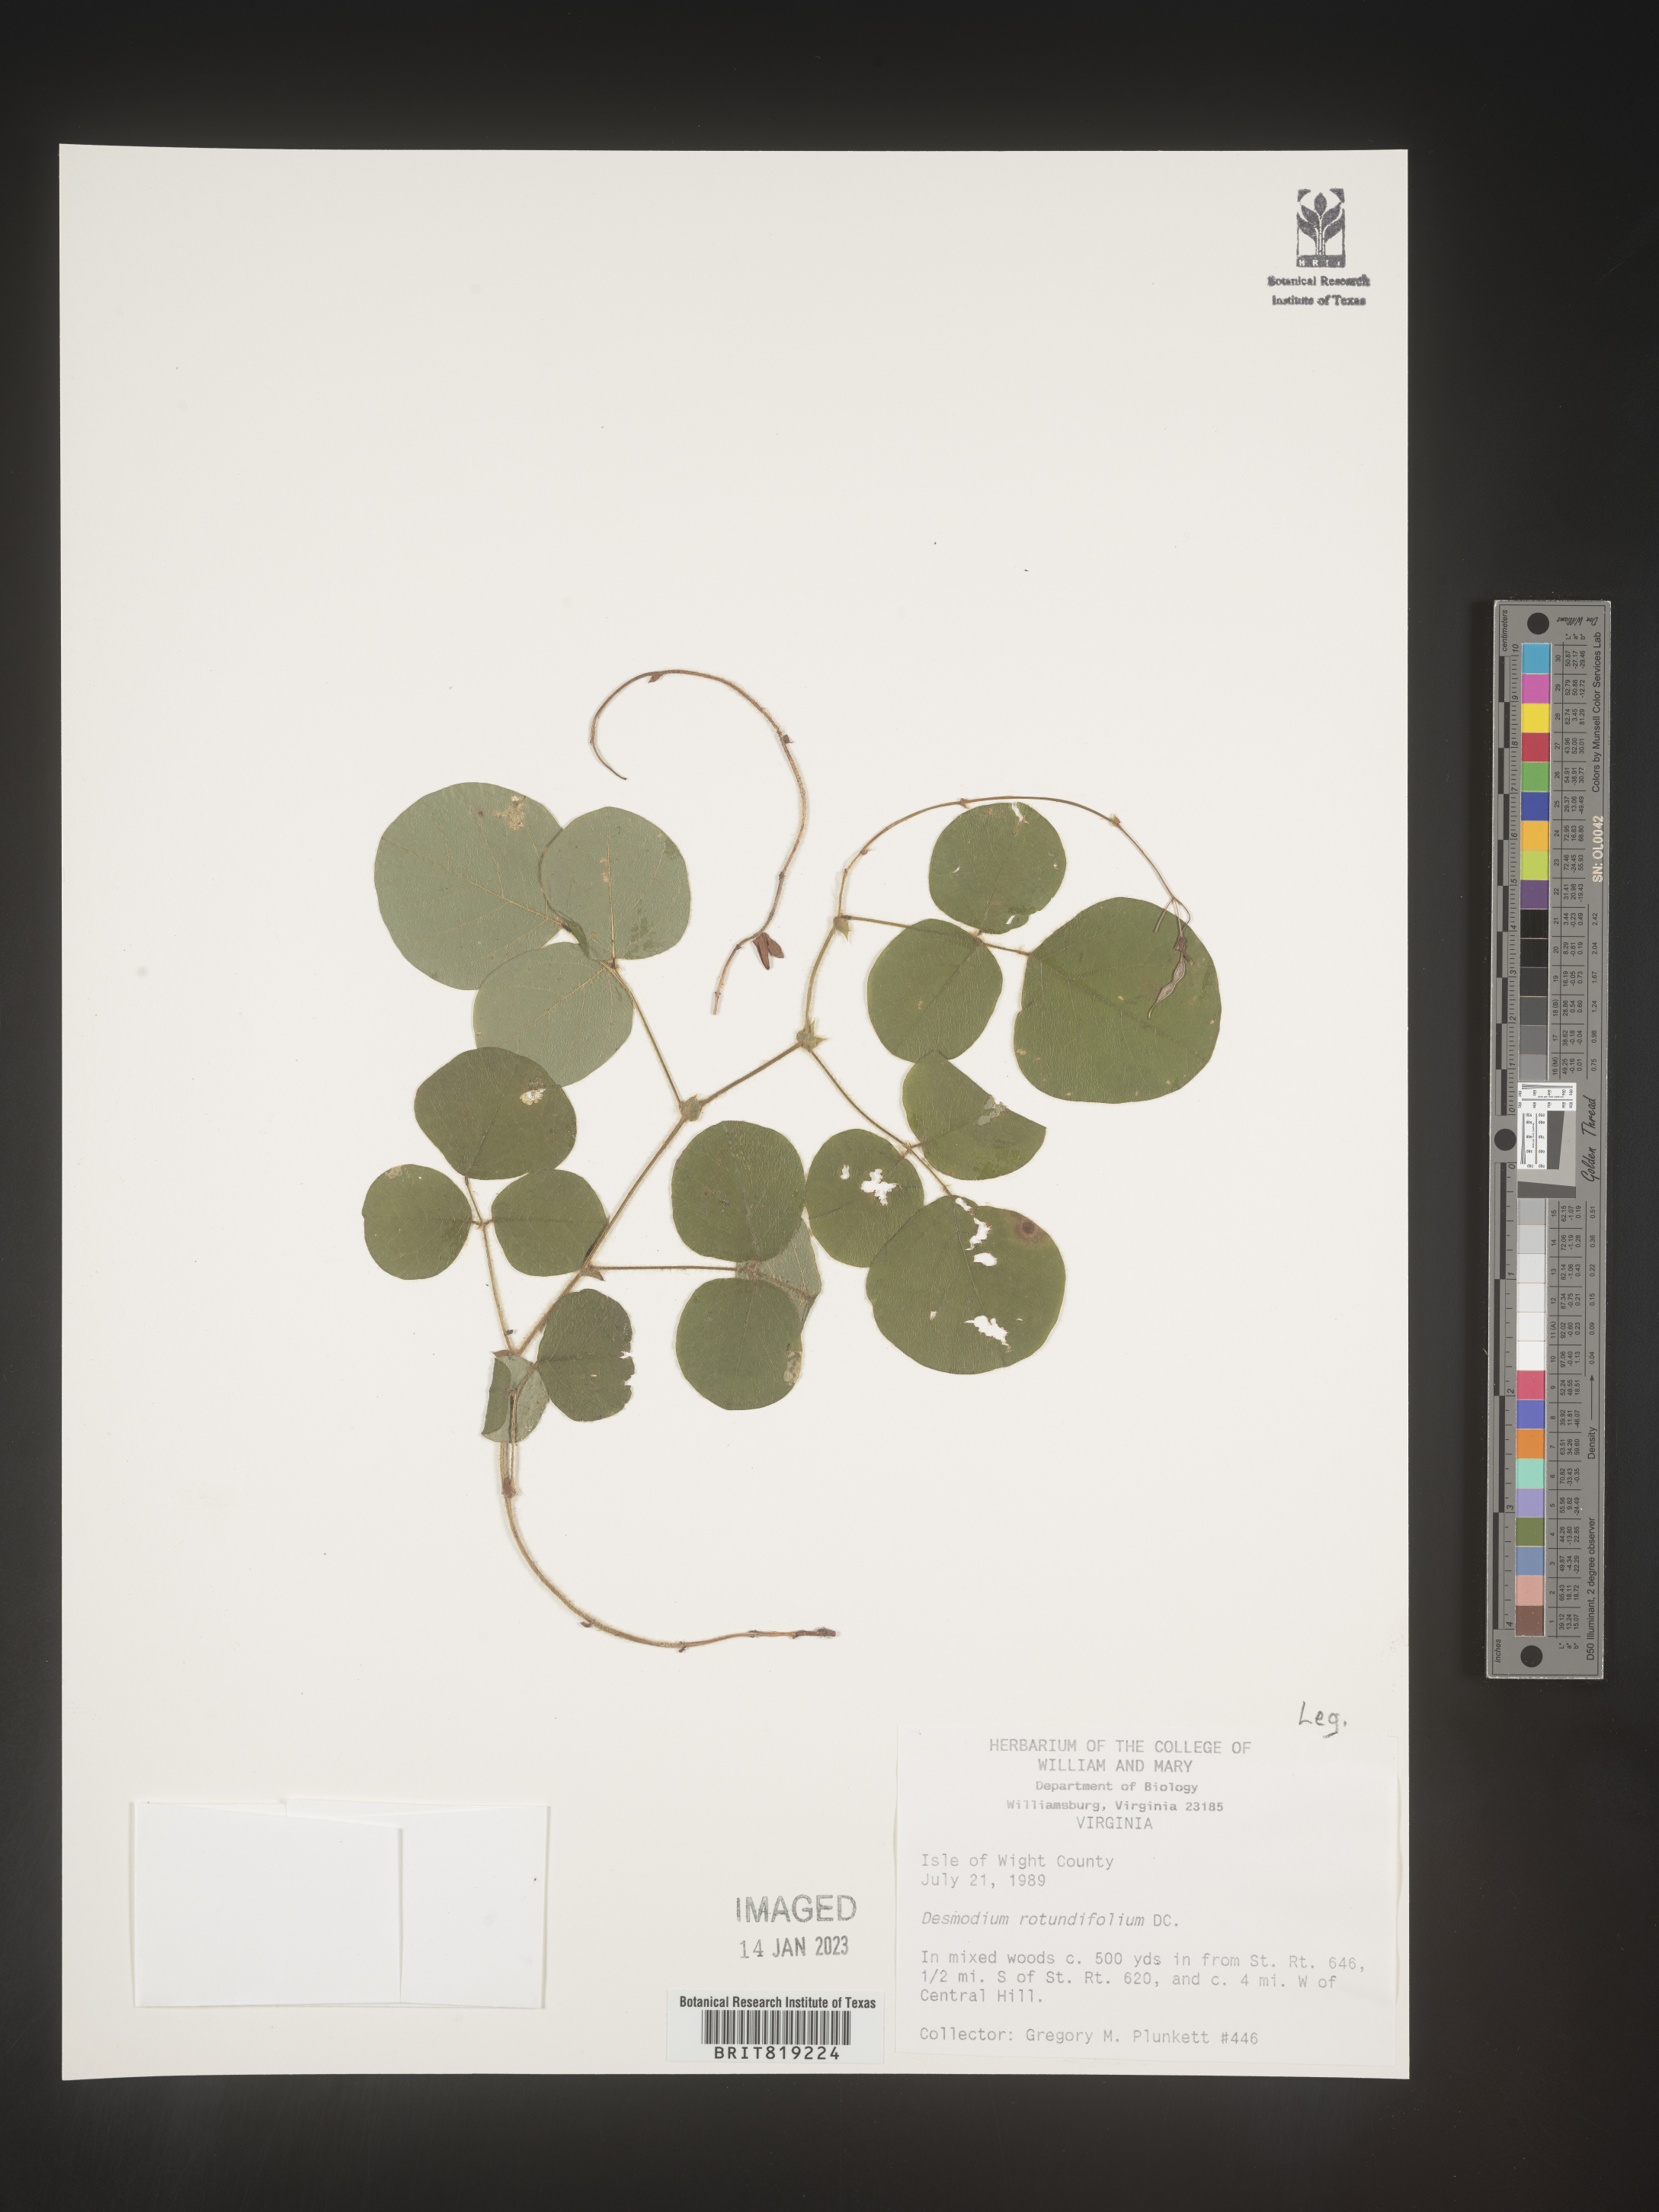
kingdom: Plantae
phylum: Tracheophyta
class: Magnoliopsida
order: Fabales
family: Fabaceae
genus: Desmodium
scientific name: Desmodium rotundifolium
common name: Dollarleaf
